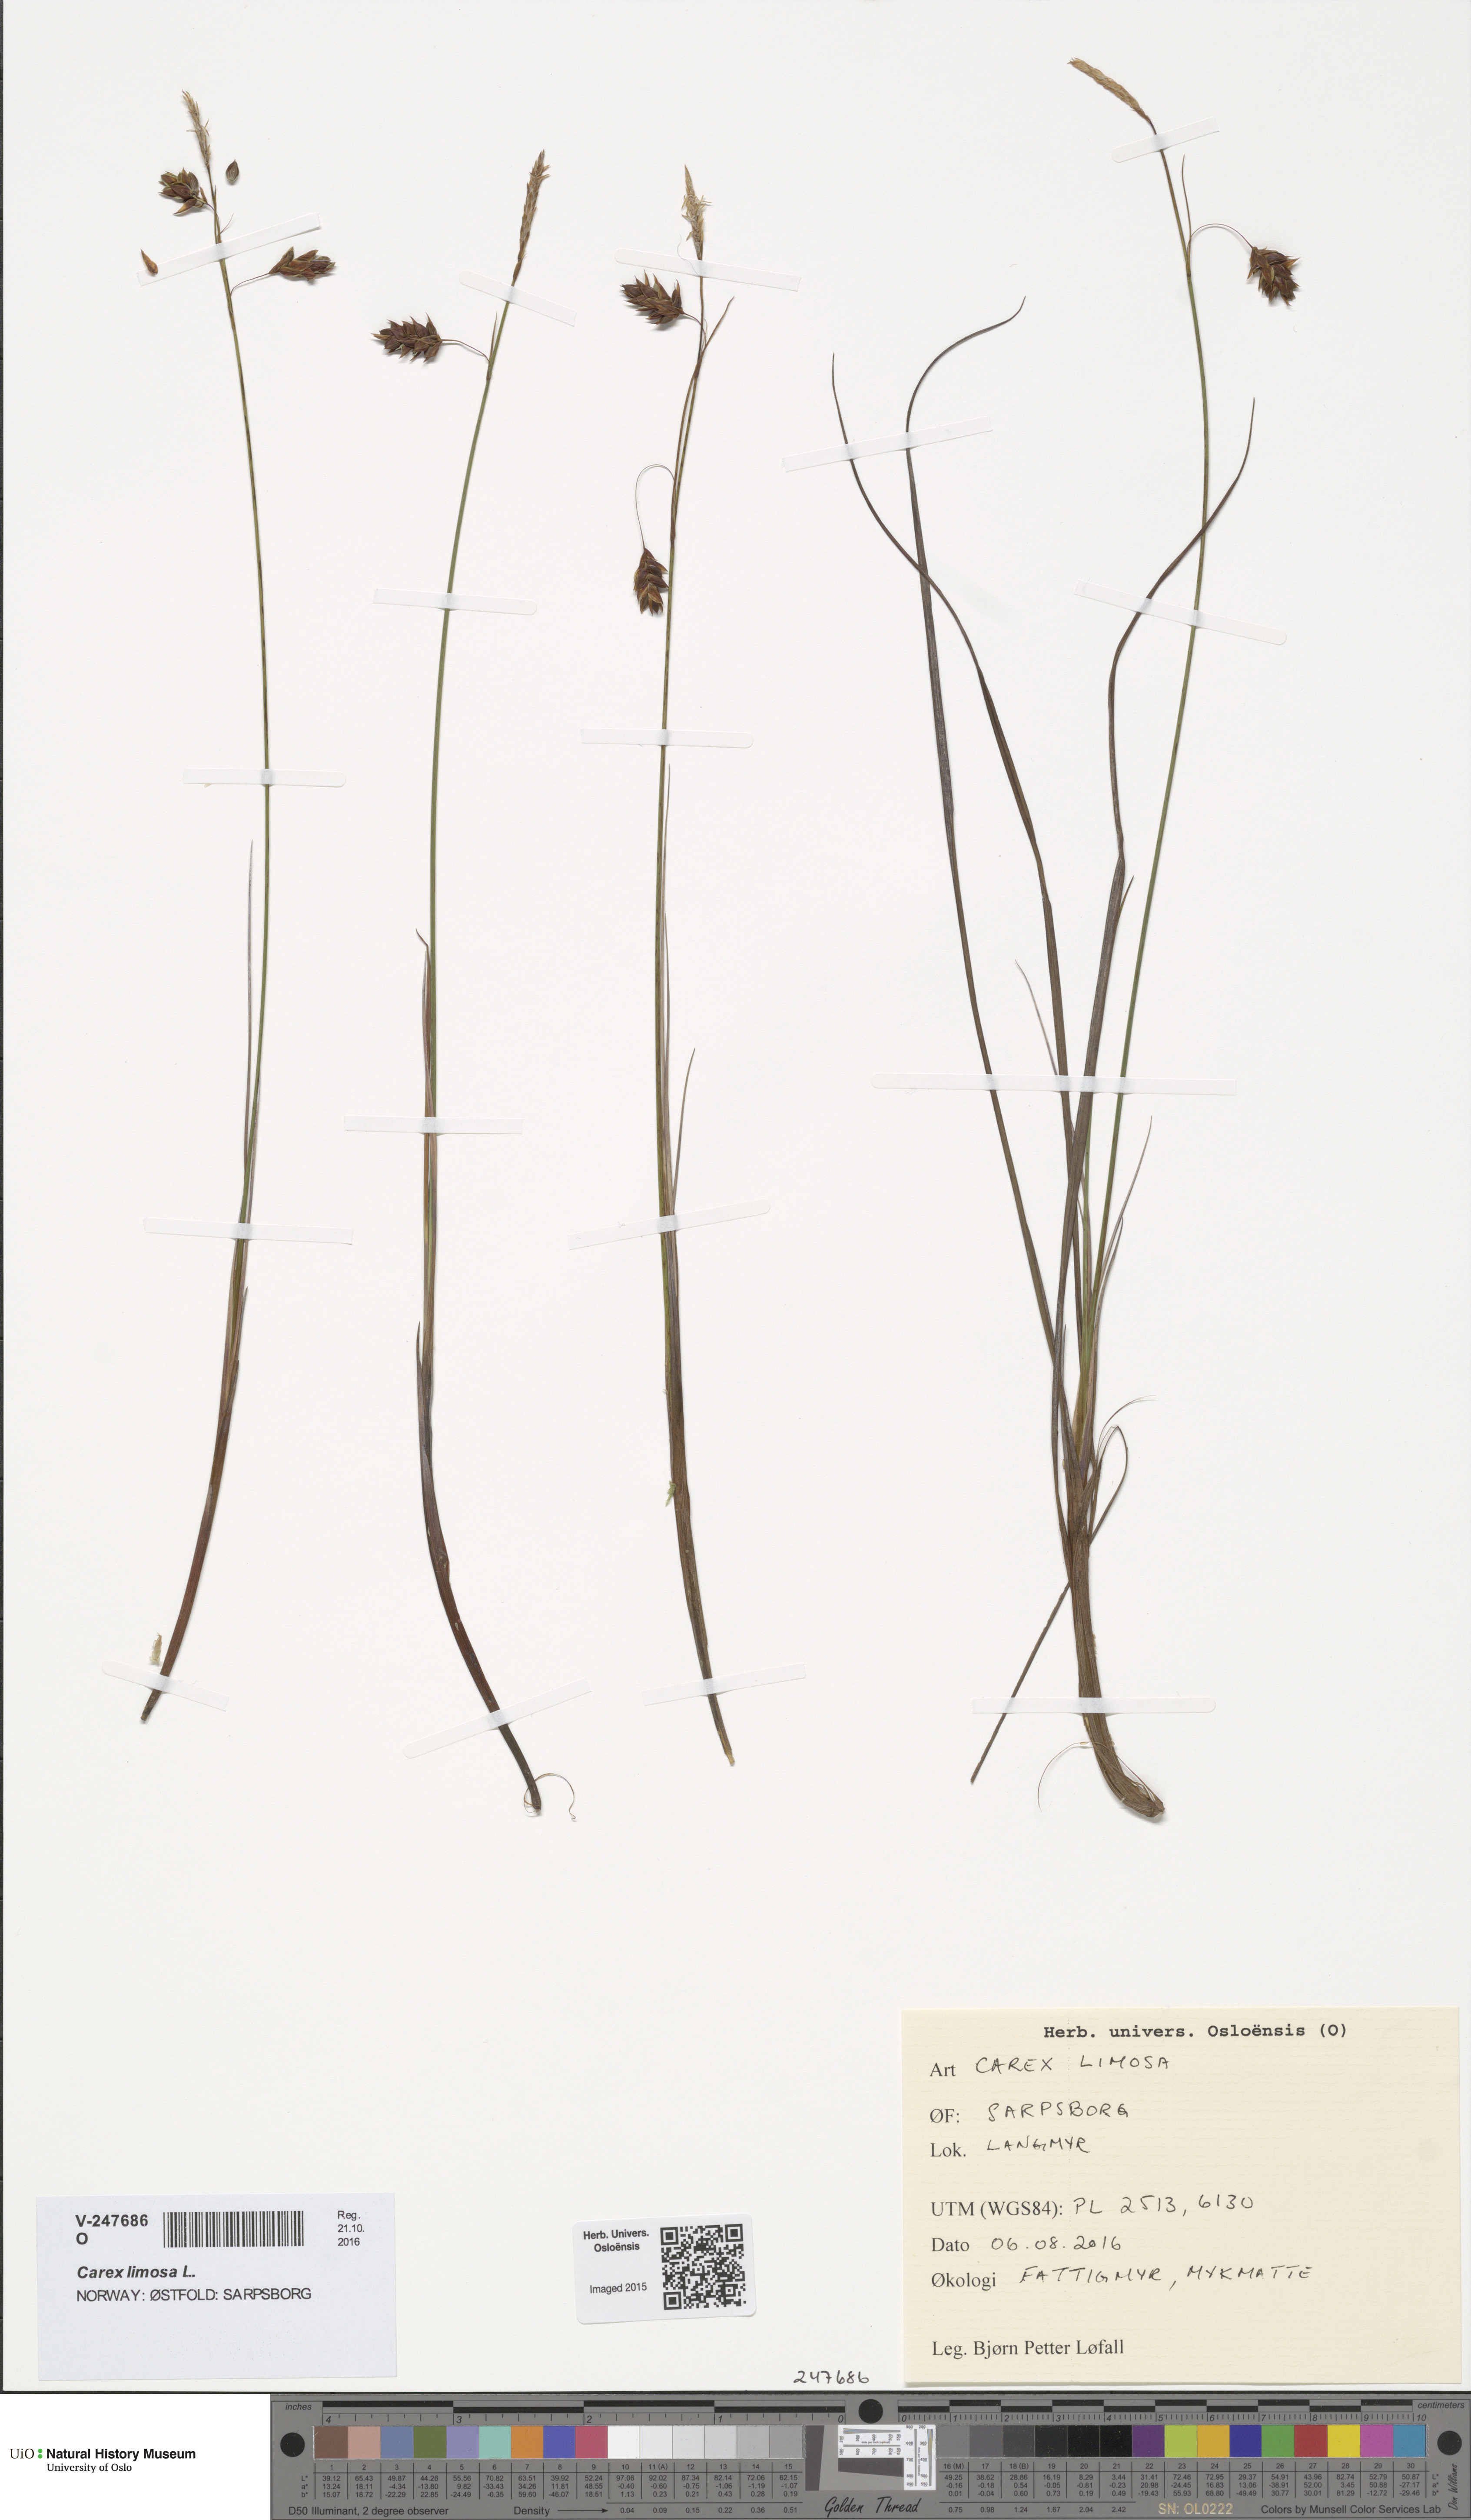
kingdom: Plantae
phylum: Tracheophyta
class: Liliopsida
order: Poales
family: Cyperaceae
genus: Carex
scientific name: Carex limosa
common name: Bog sedge
